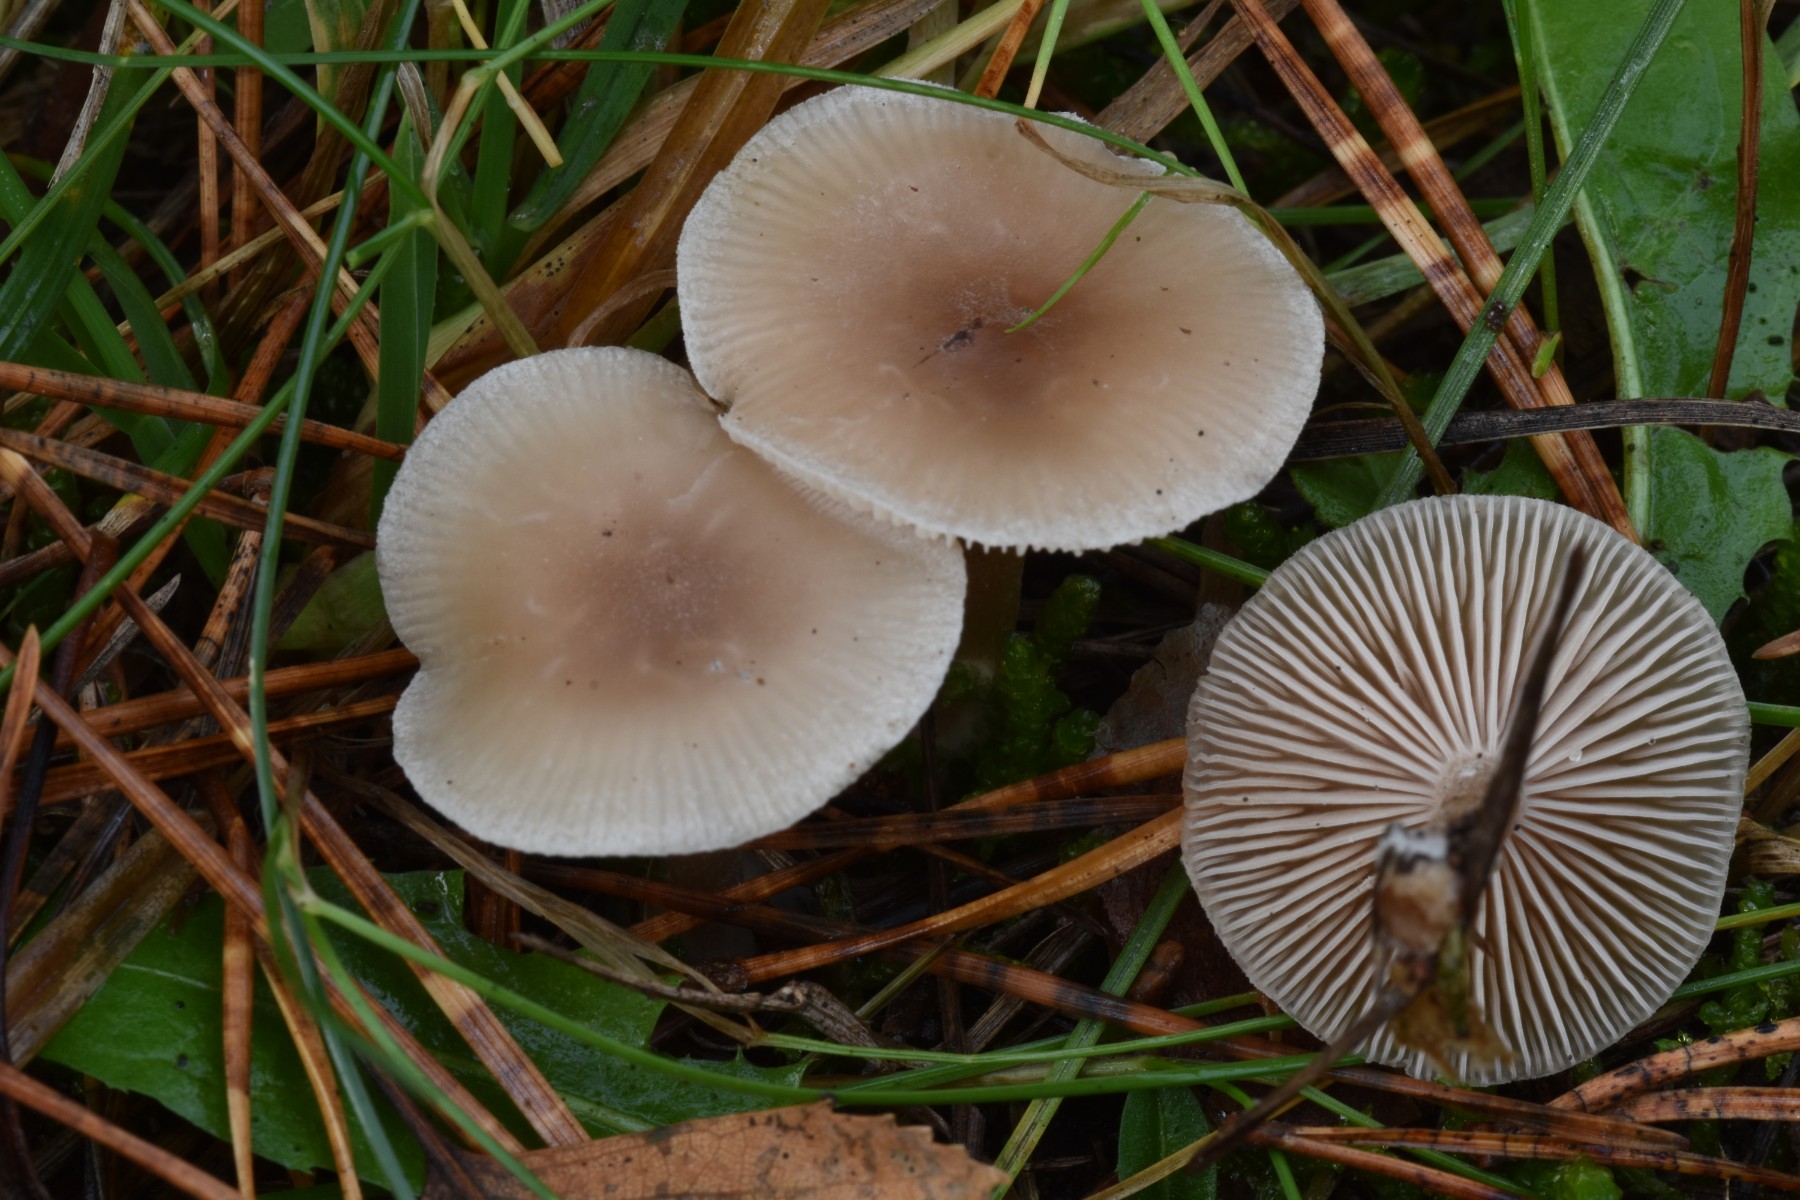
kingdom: Fungi
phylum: Basidiomycota
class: Agaricomycetes
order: Agaricales
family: Tricholomataceae
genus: Clitocybe
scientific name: Clitocybe fragrans
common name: vellugtende tragthat
